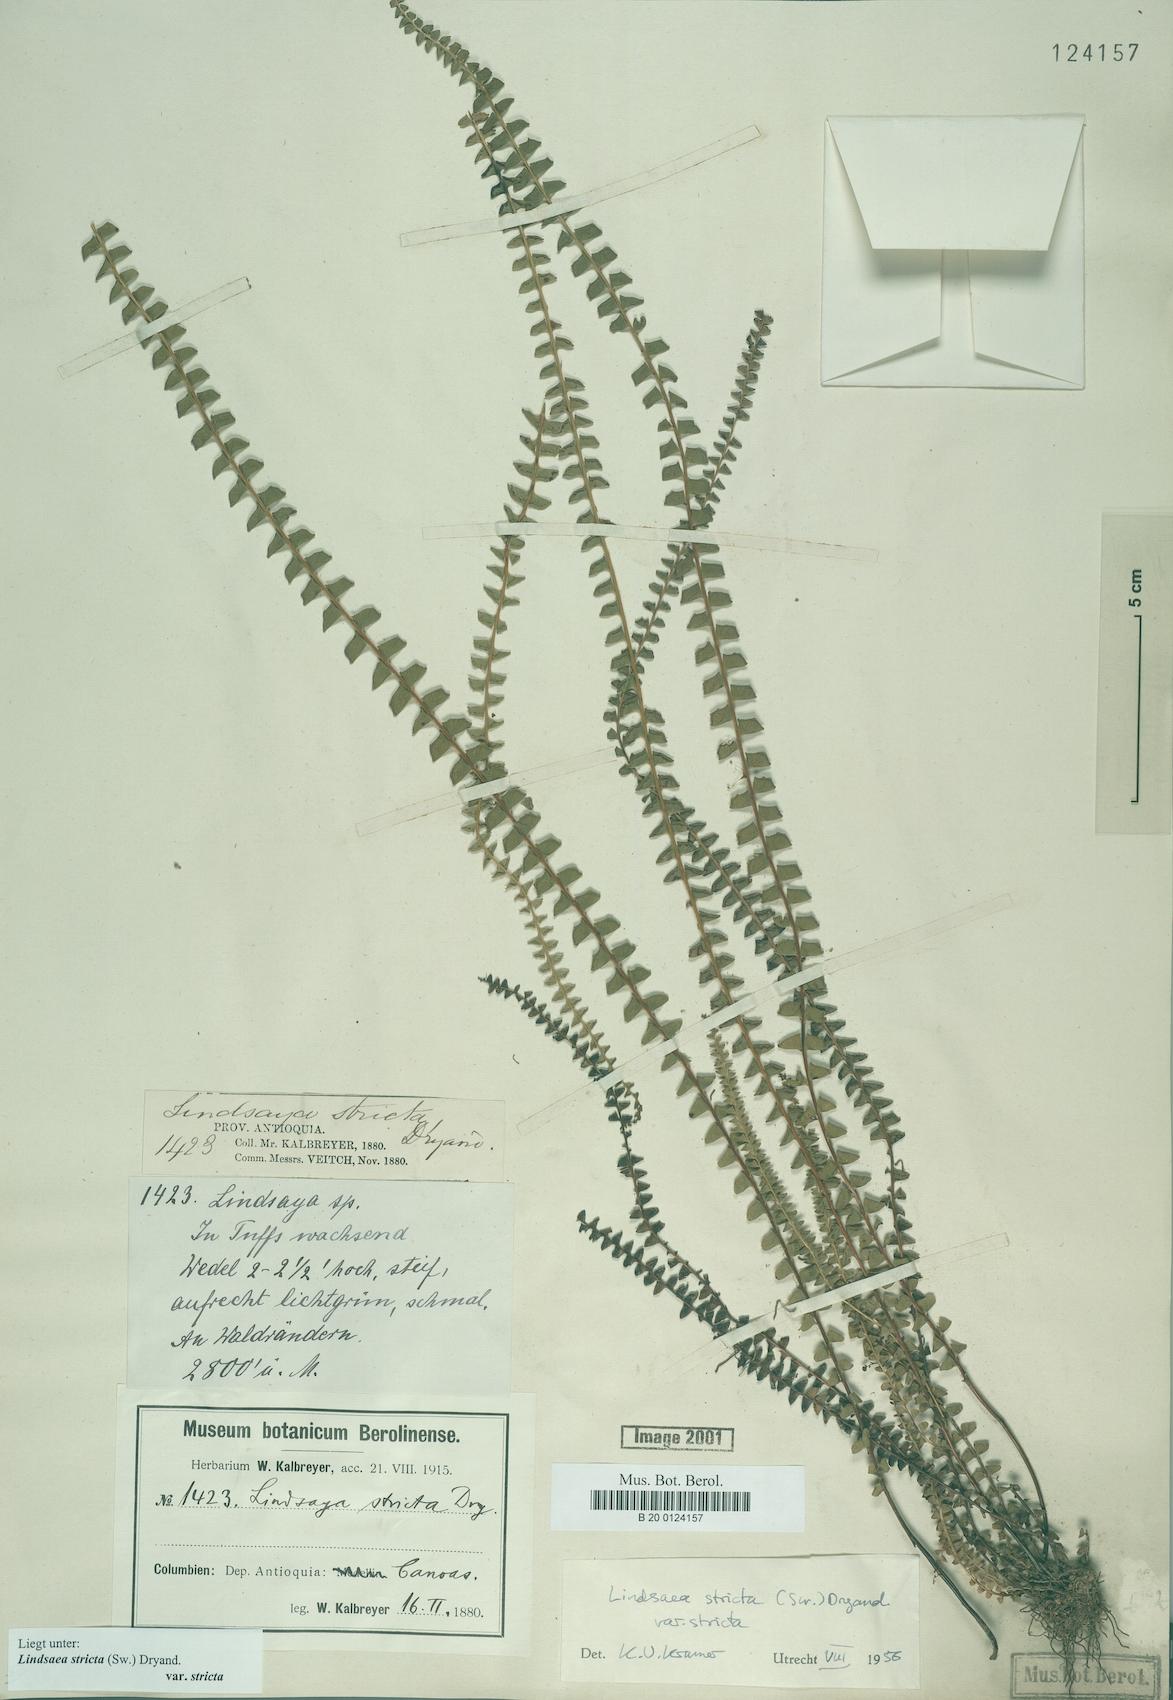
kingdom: Plantae
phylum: Tracheophyta
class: Polypodiopsida
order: Polypodiales
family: Lindsaeaceae
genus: Lindsaea
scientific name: Lindsaea stricta
